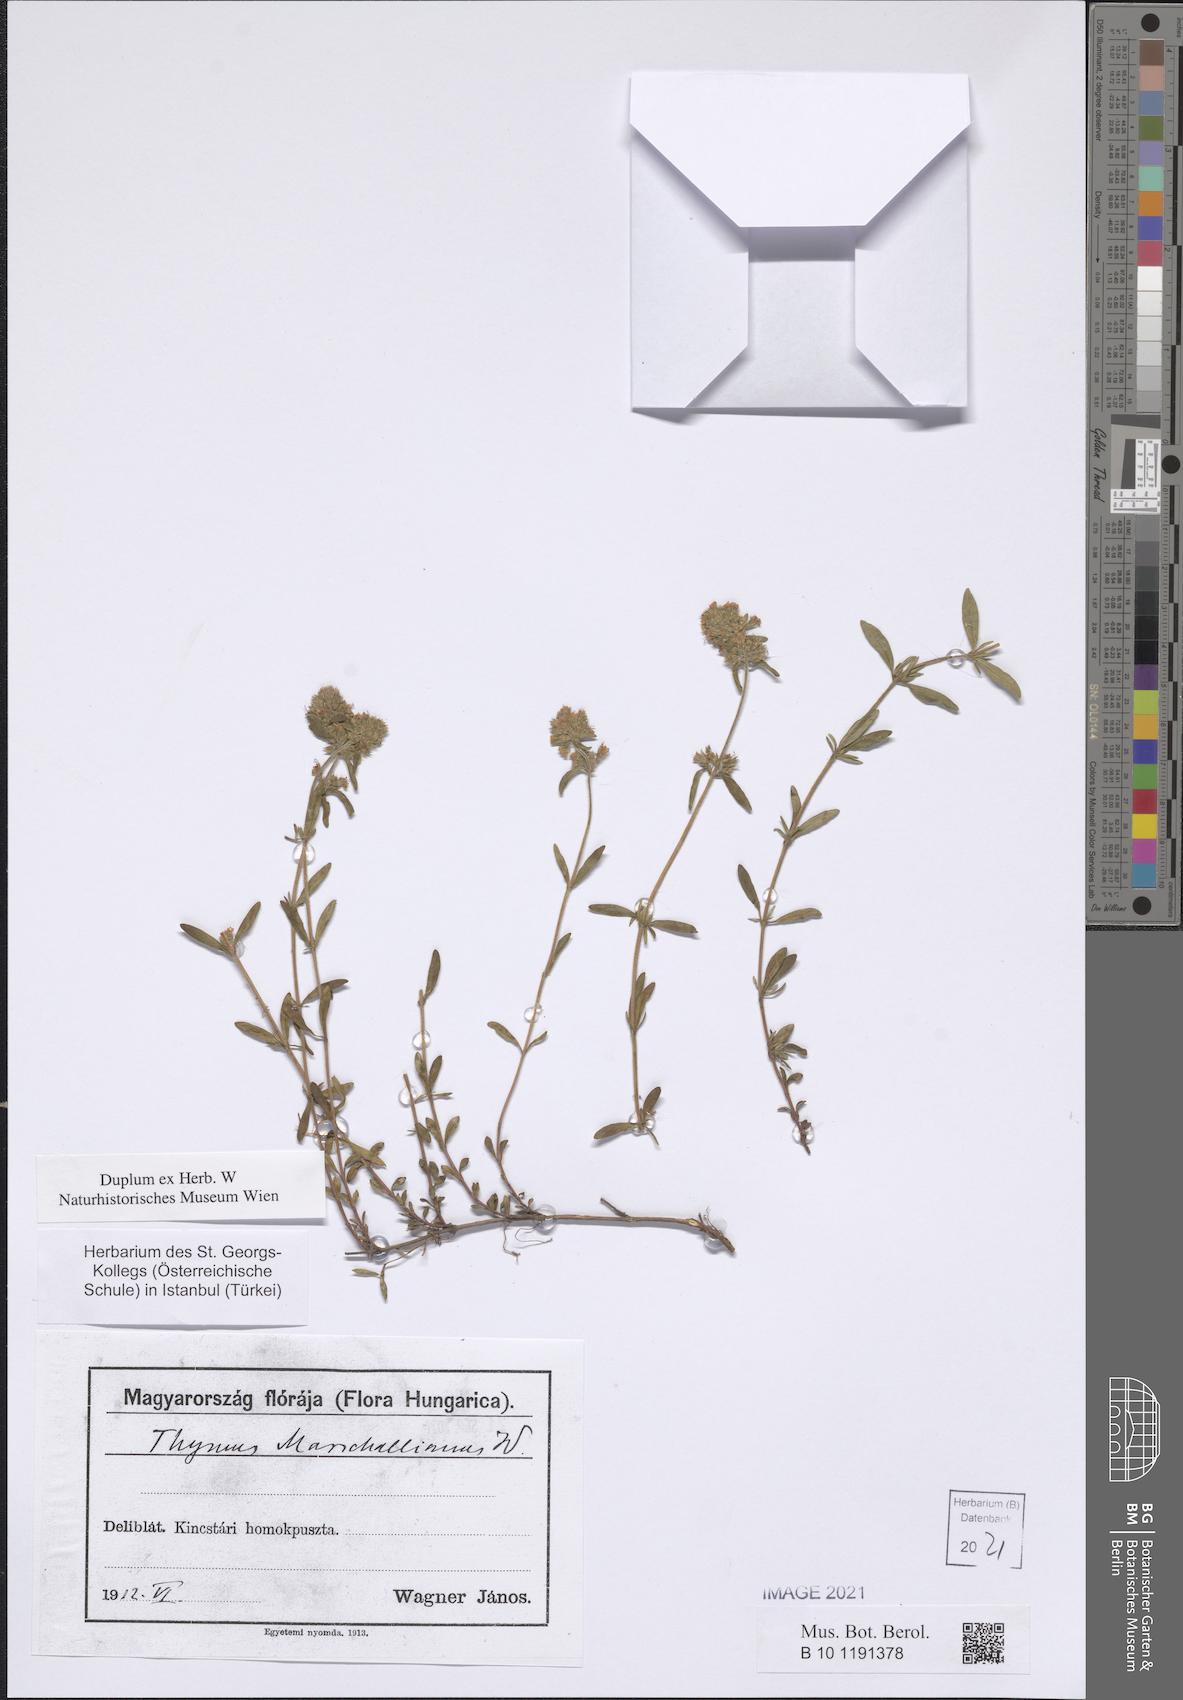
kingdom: Plantae
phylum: Tracheophyta
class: Magnoliopsida
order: Lamiales
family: Lamiaceae
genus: Thymus
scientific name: Thymus pannonicus
